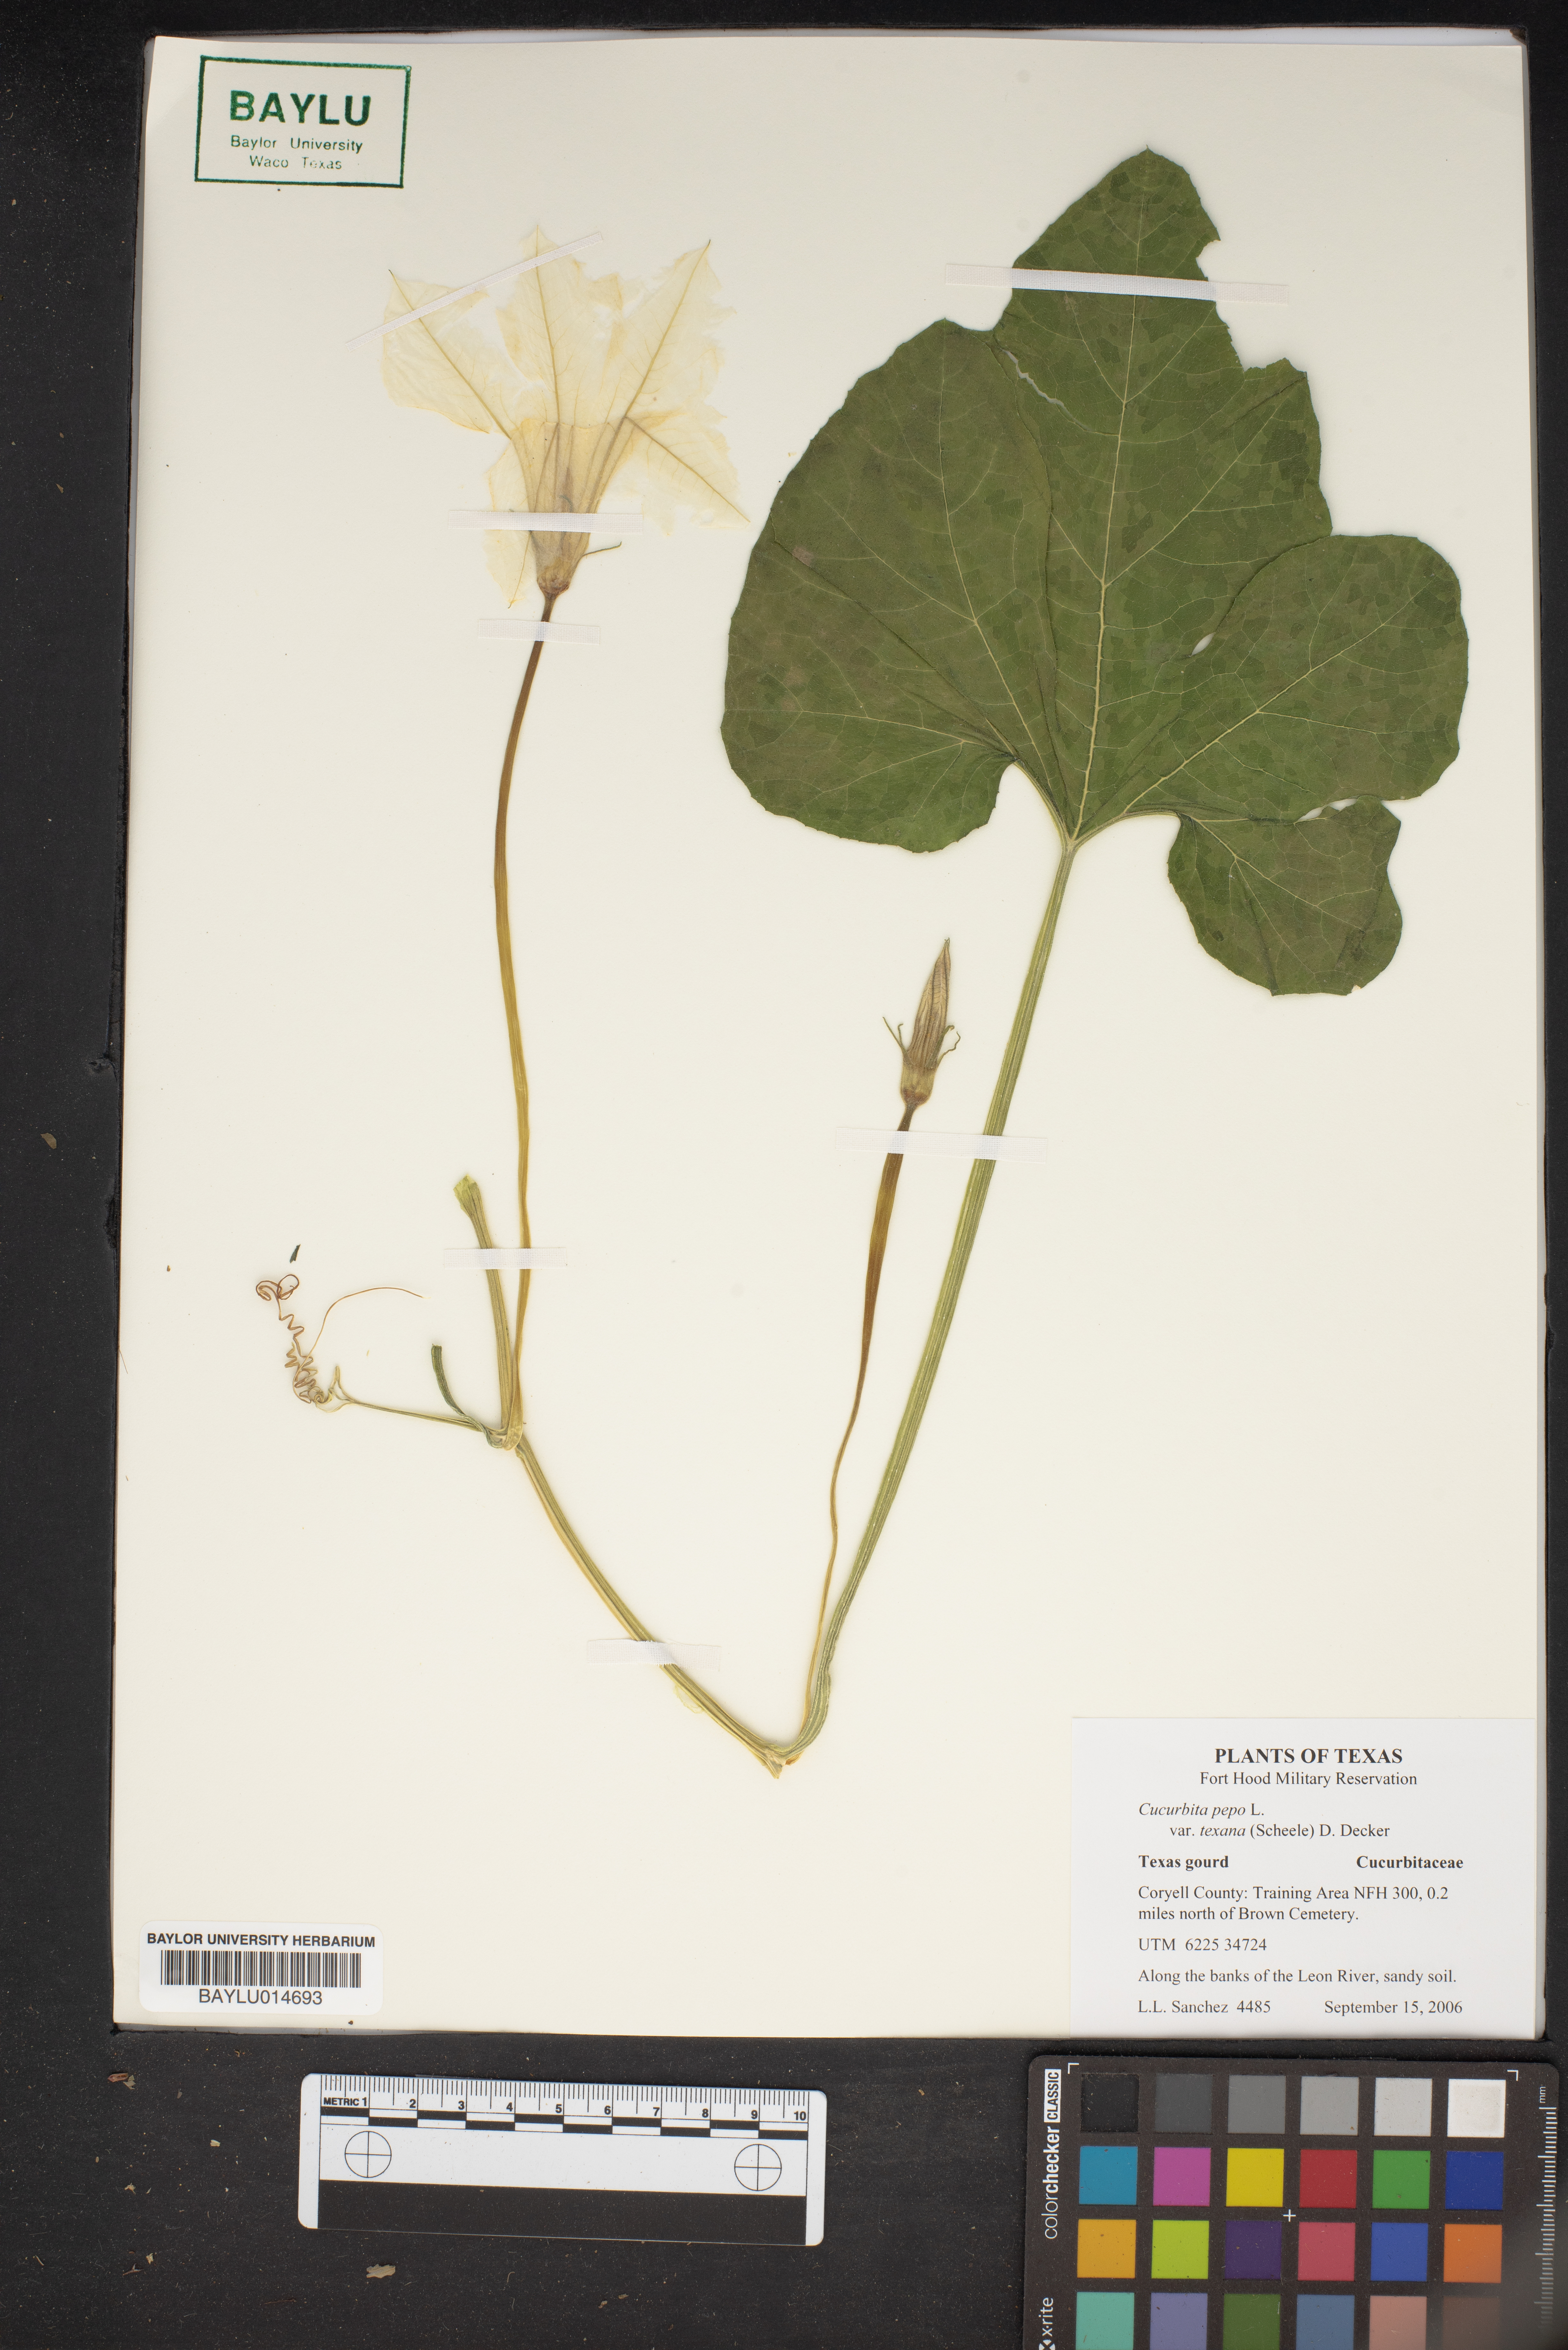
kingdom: Plantae
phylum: Tracheophyta
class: Magnoliopsida
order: Cucurbitales
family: Cucurbitaceae
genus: Cucurbita
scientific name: Cucurbita melopepo
